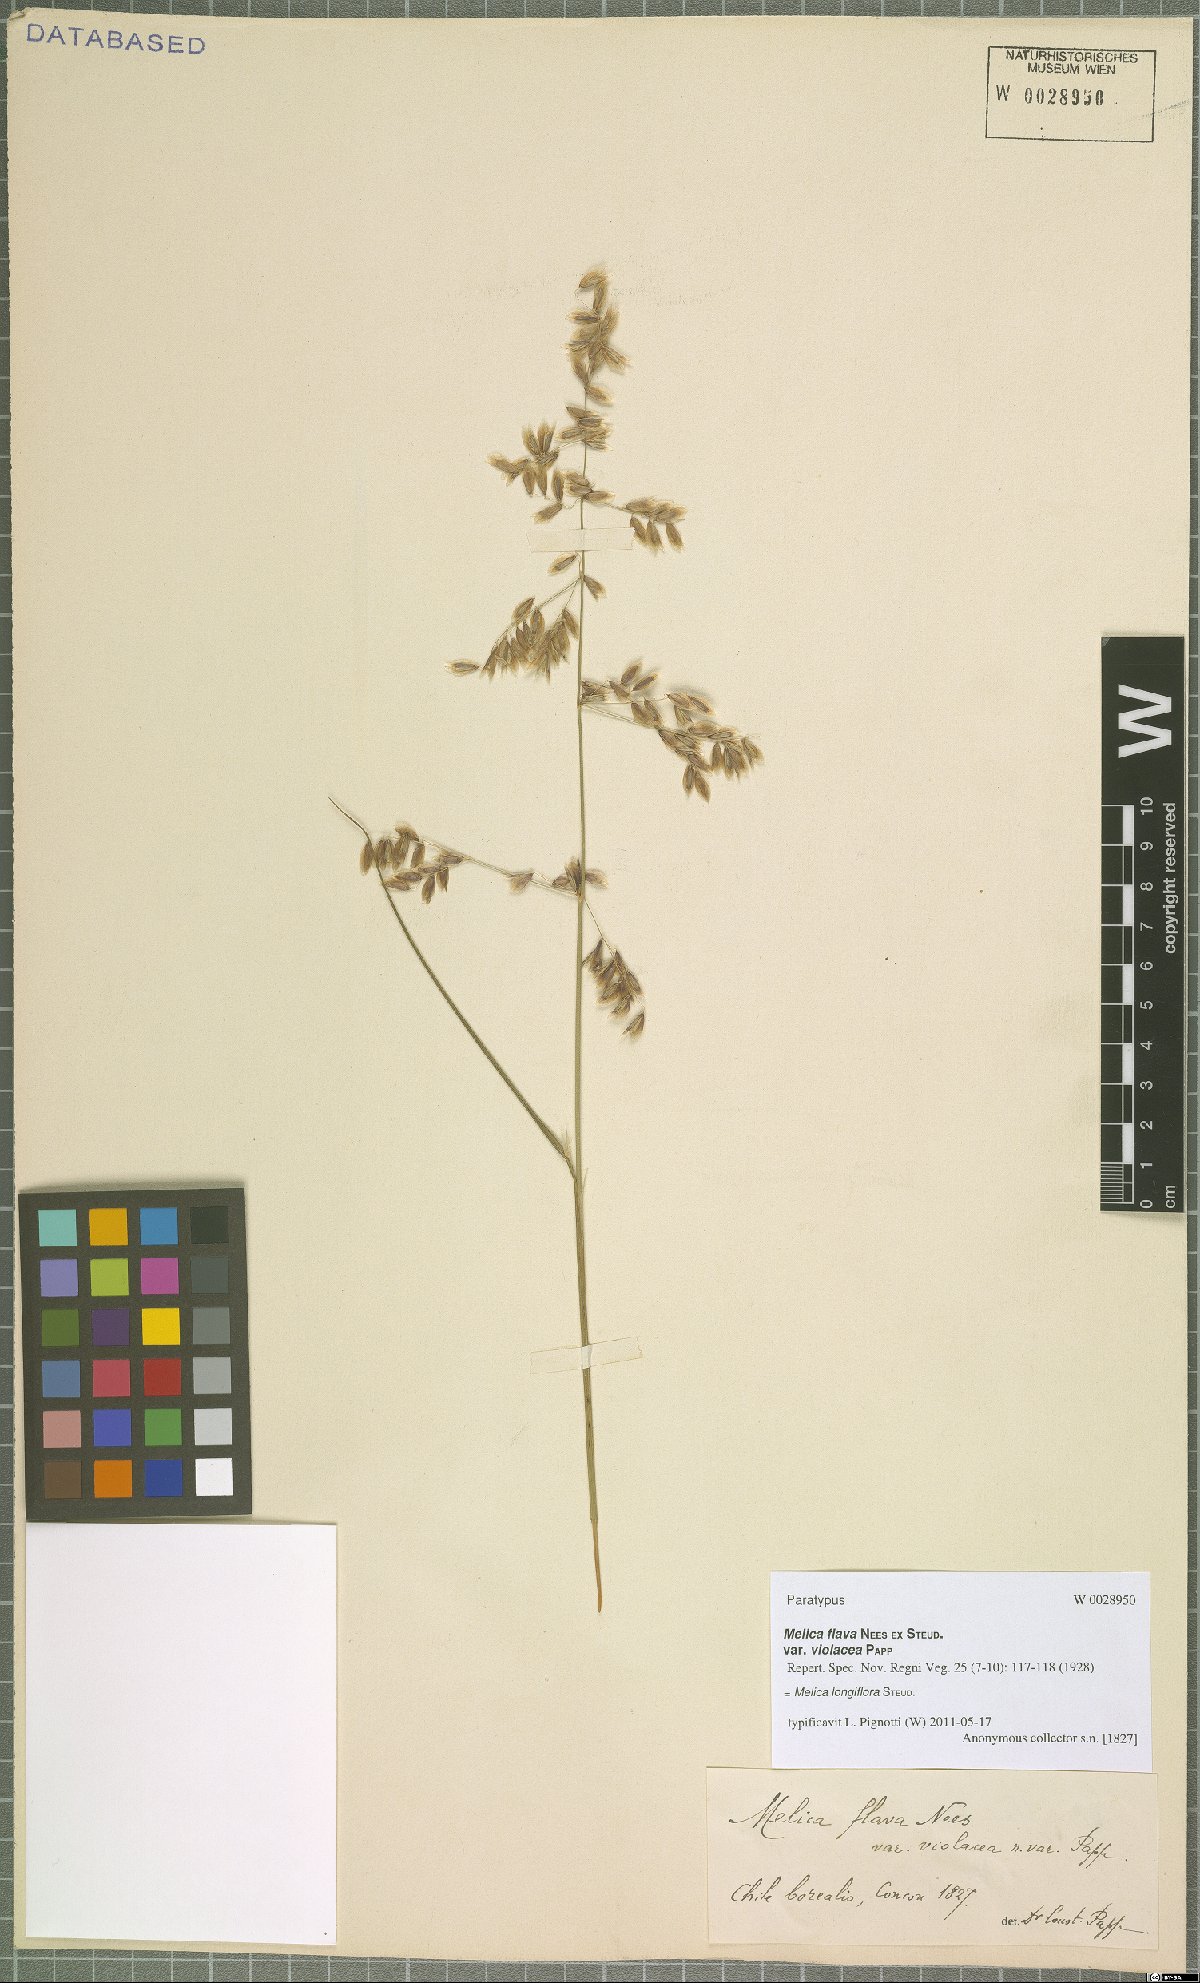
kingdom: Plantae
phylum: Tracheophyta
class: Liliopsida
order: Poales
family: Poaceae
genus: Melica
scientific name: Melica longiflora
